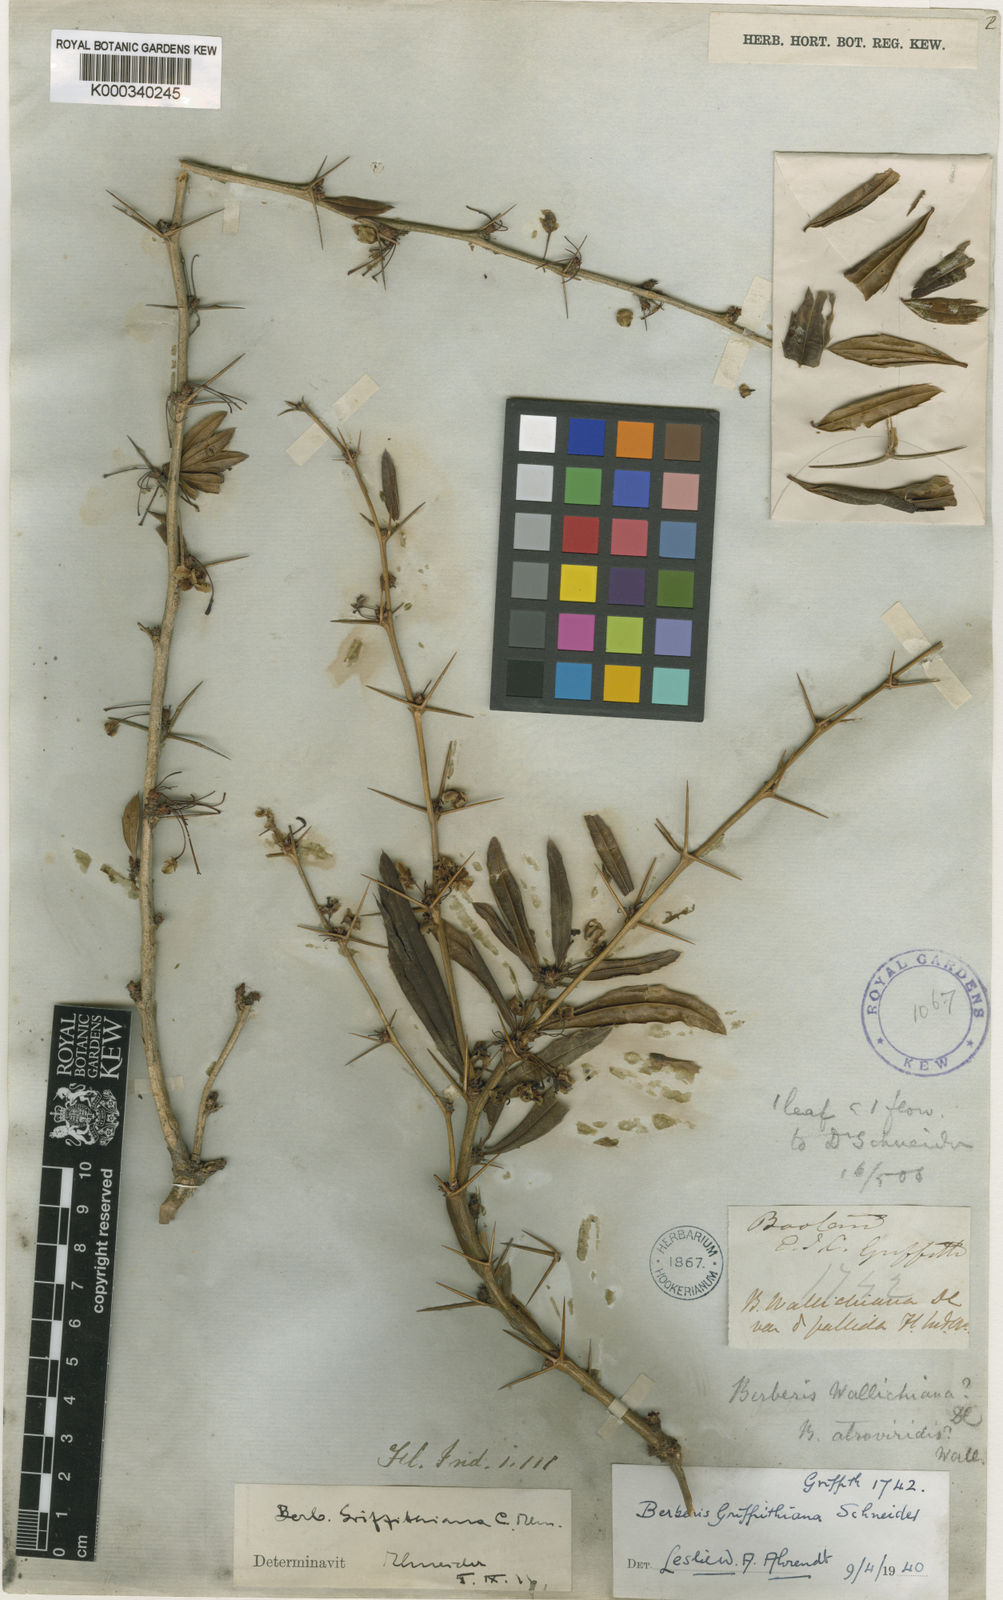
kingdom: Plantae
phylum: Tracheophyta
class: Magnoliopsida
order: Ranunculales
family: Berberidaceae
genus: Berberis
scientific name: Berberis griffithiana
